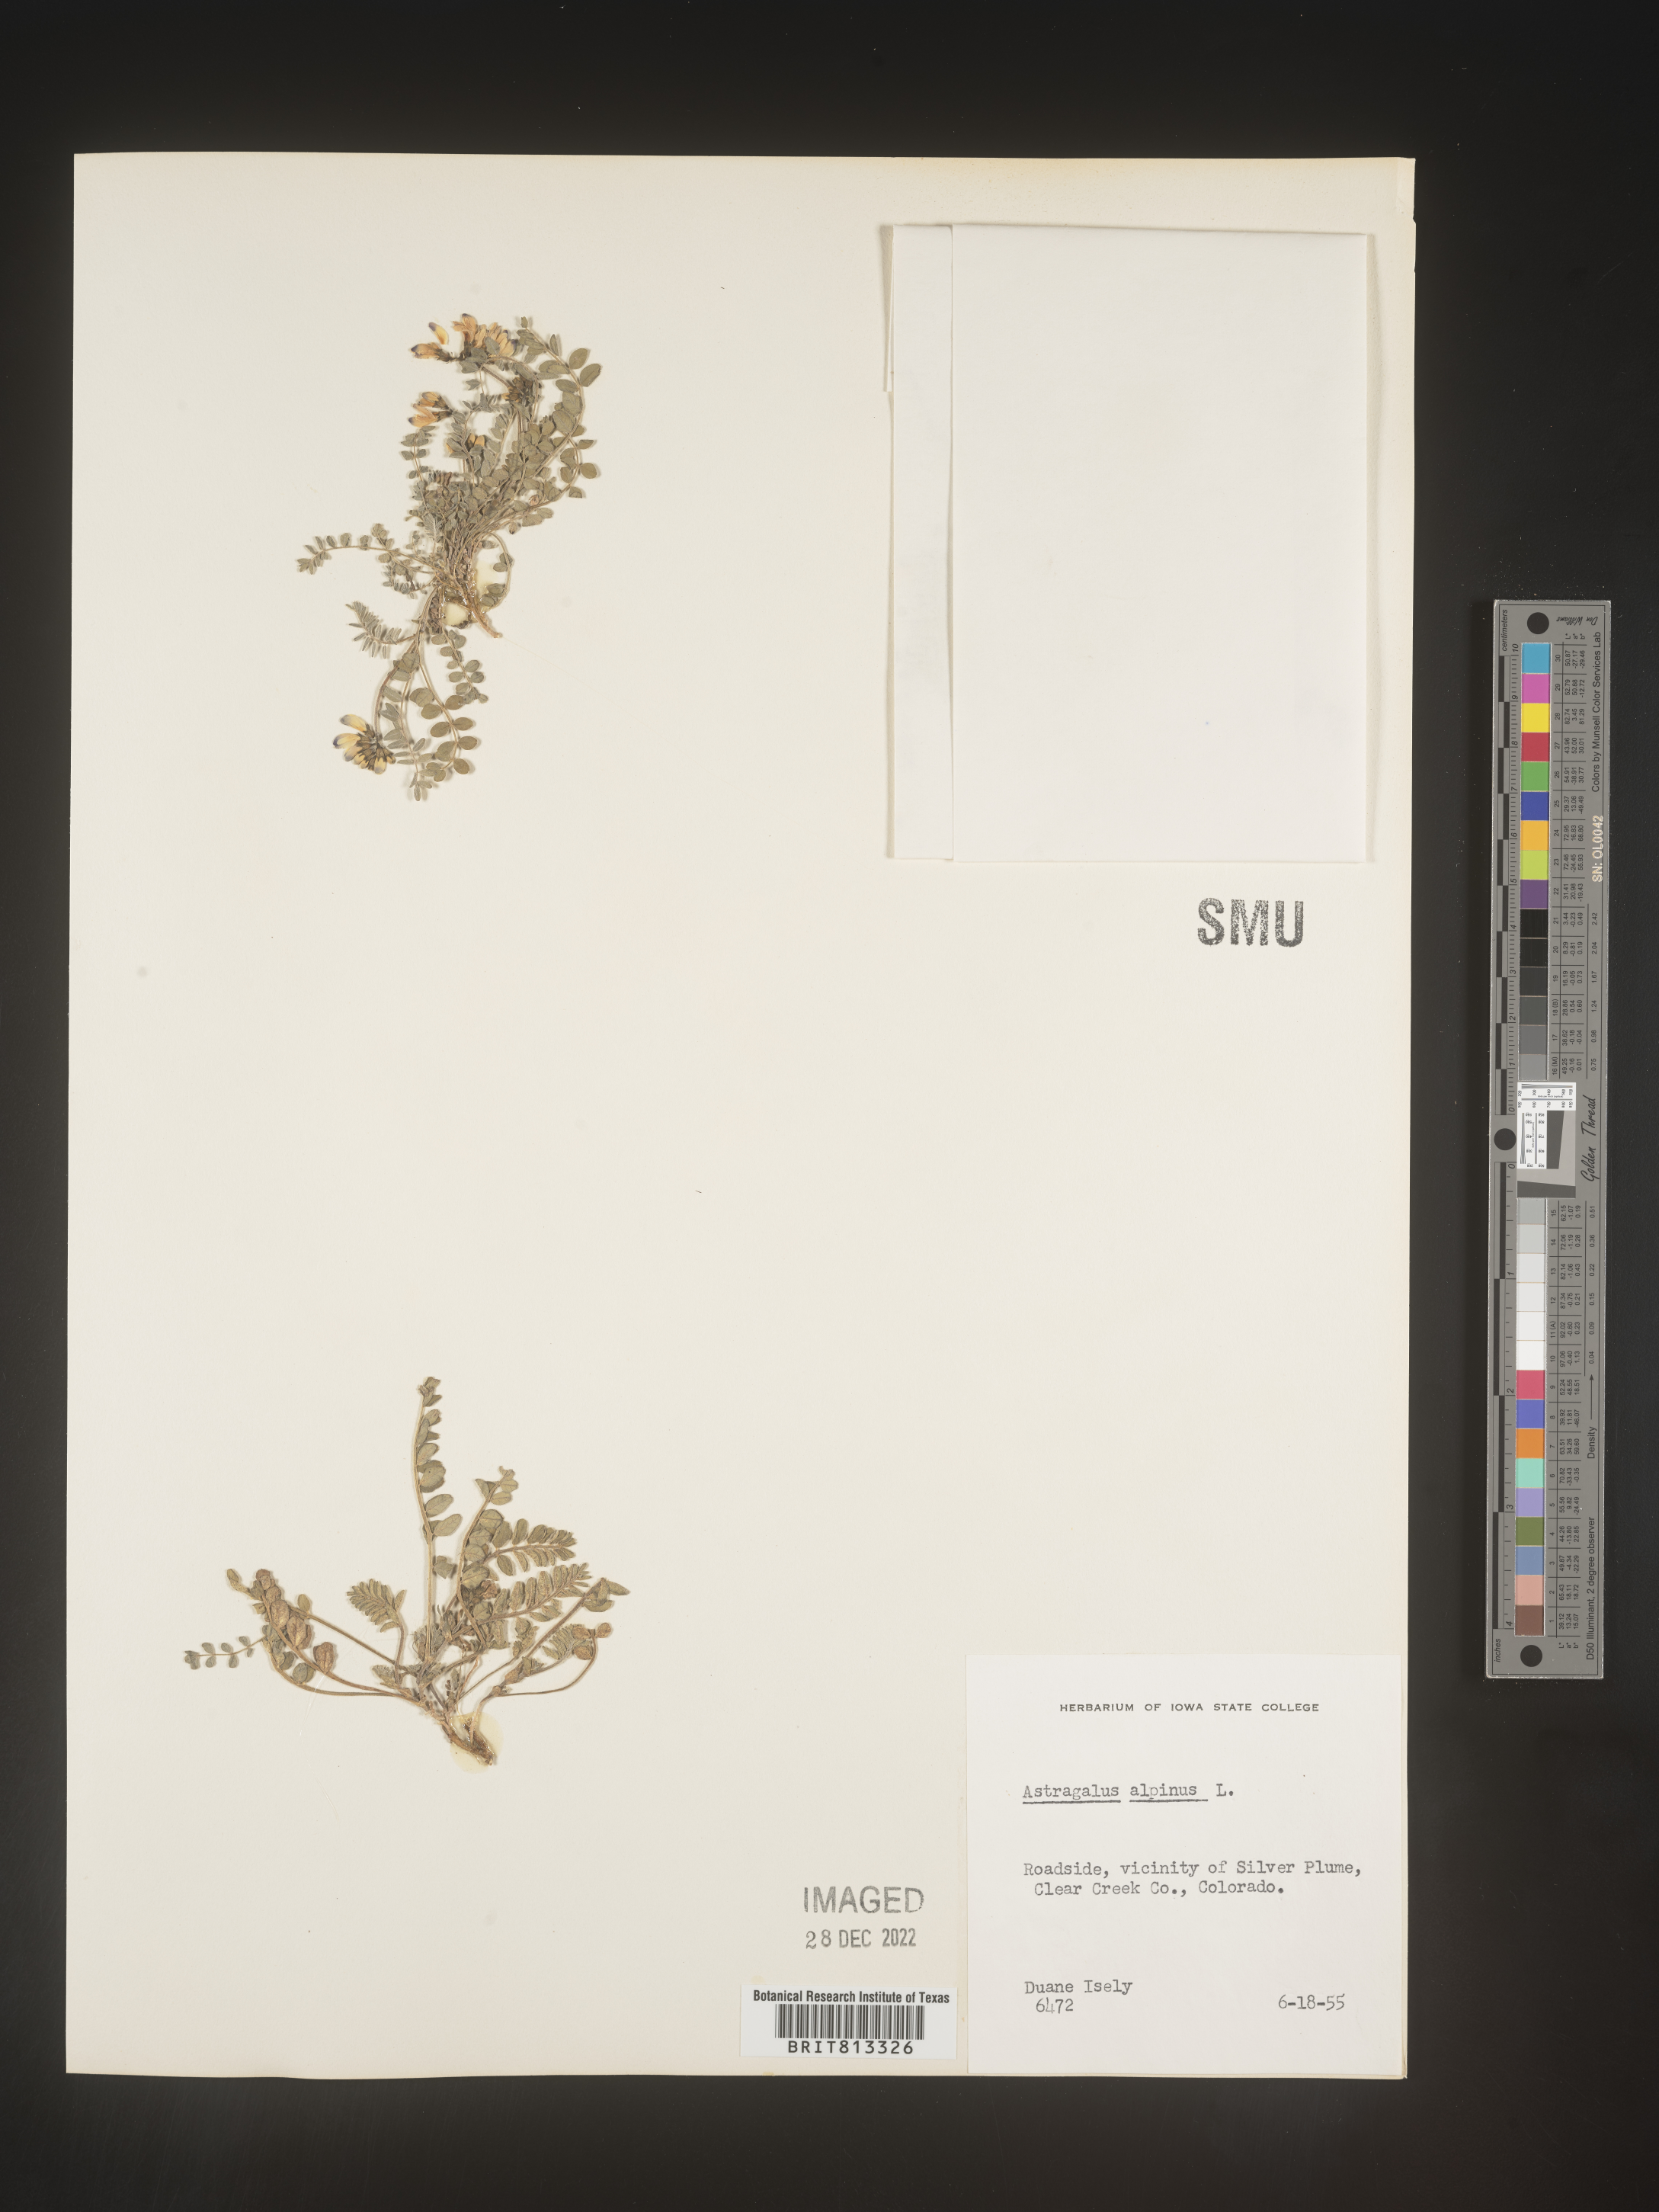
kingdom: Plantae
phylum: Tracheophyta
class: Magnoliopsida
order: Fabales
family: Fabaceae
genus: Astragalus
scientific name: Astragalus alpinus
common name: Alpine milk-vetch
